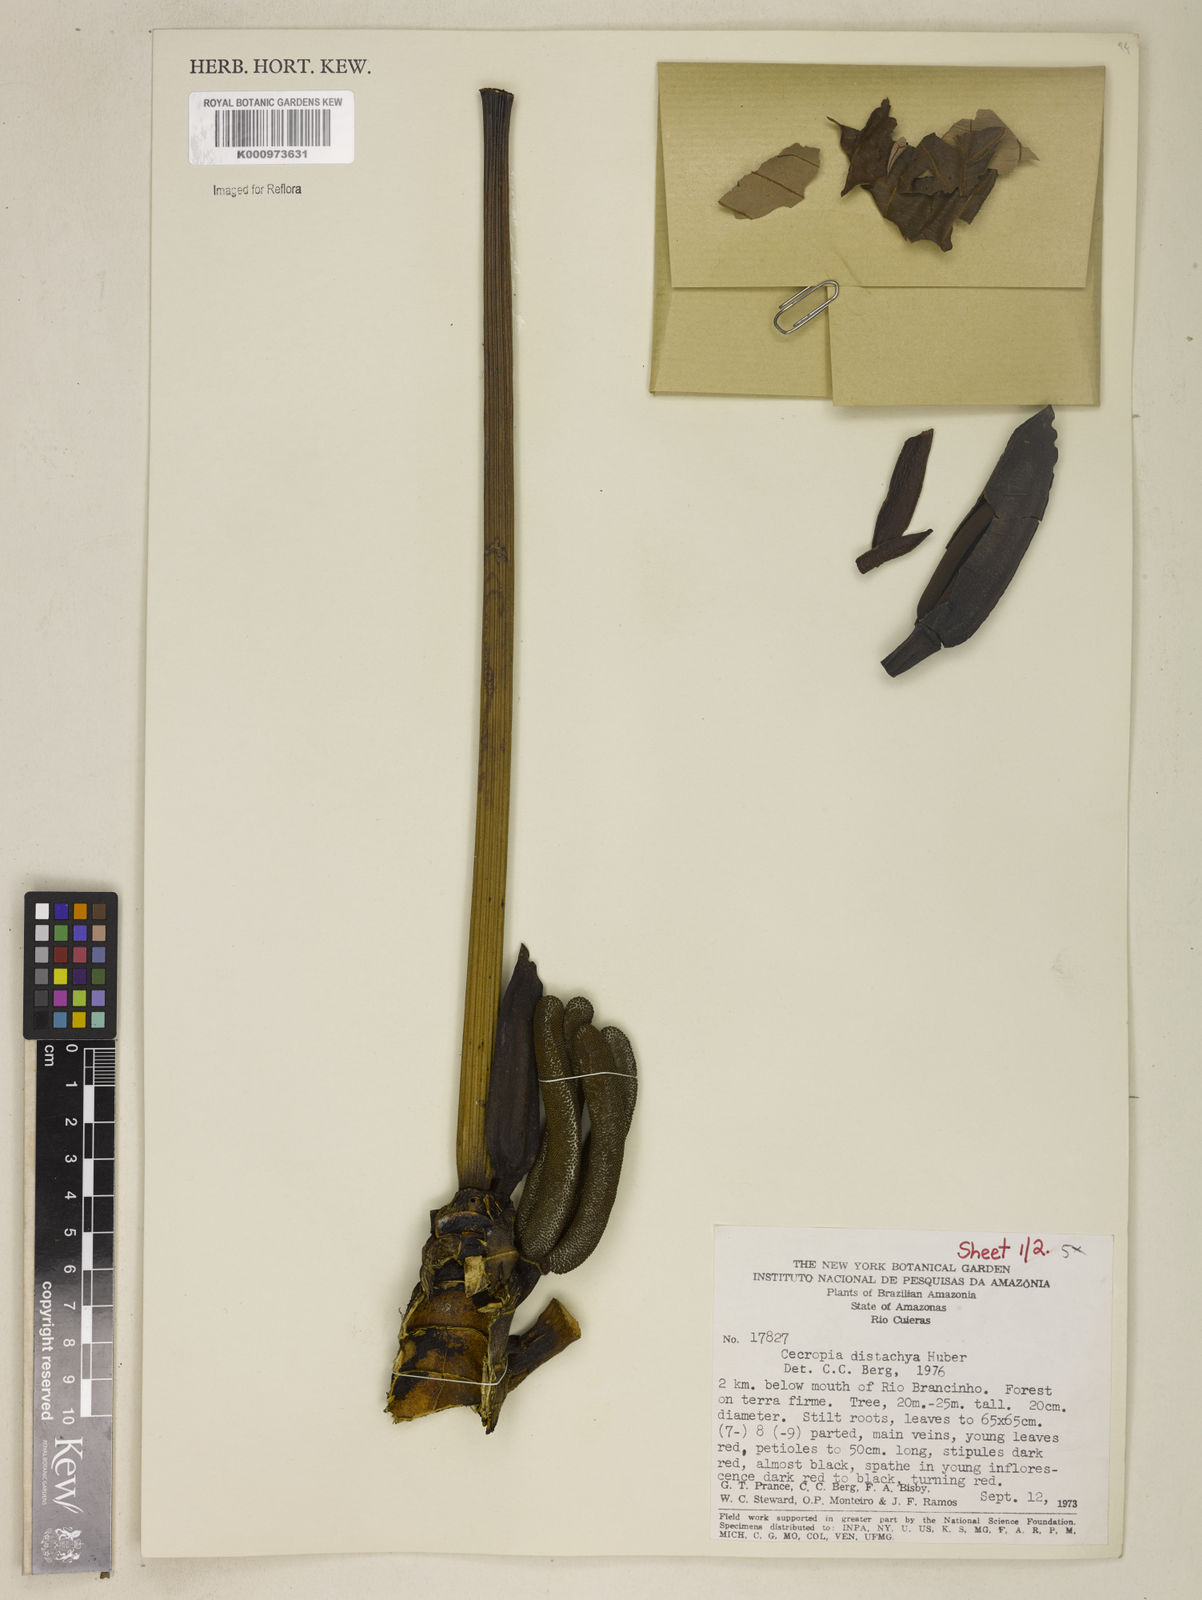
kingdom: Plantae
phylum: Tracheophyta
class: Magnoliopsida
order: Rosales
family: Urticaceae
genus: Cecropia
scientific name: Cecropia distachya
